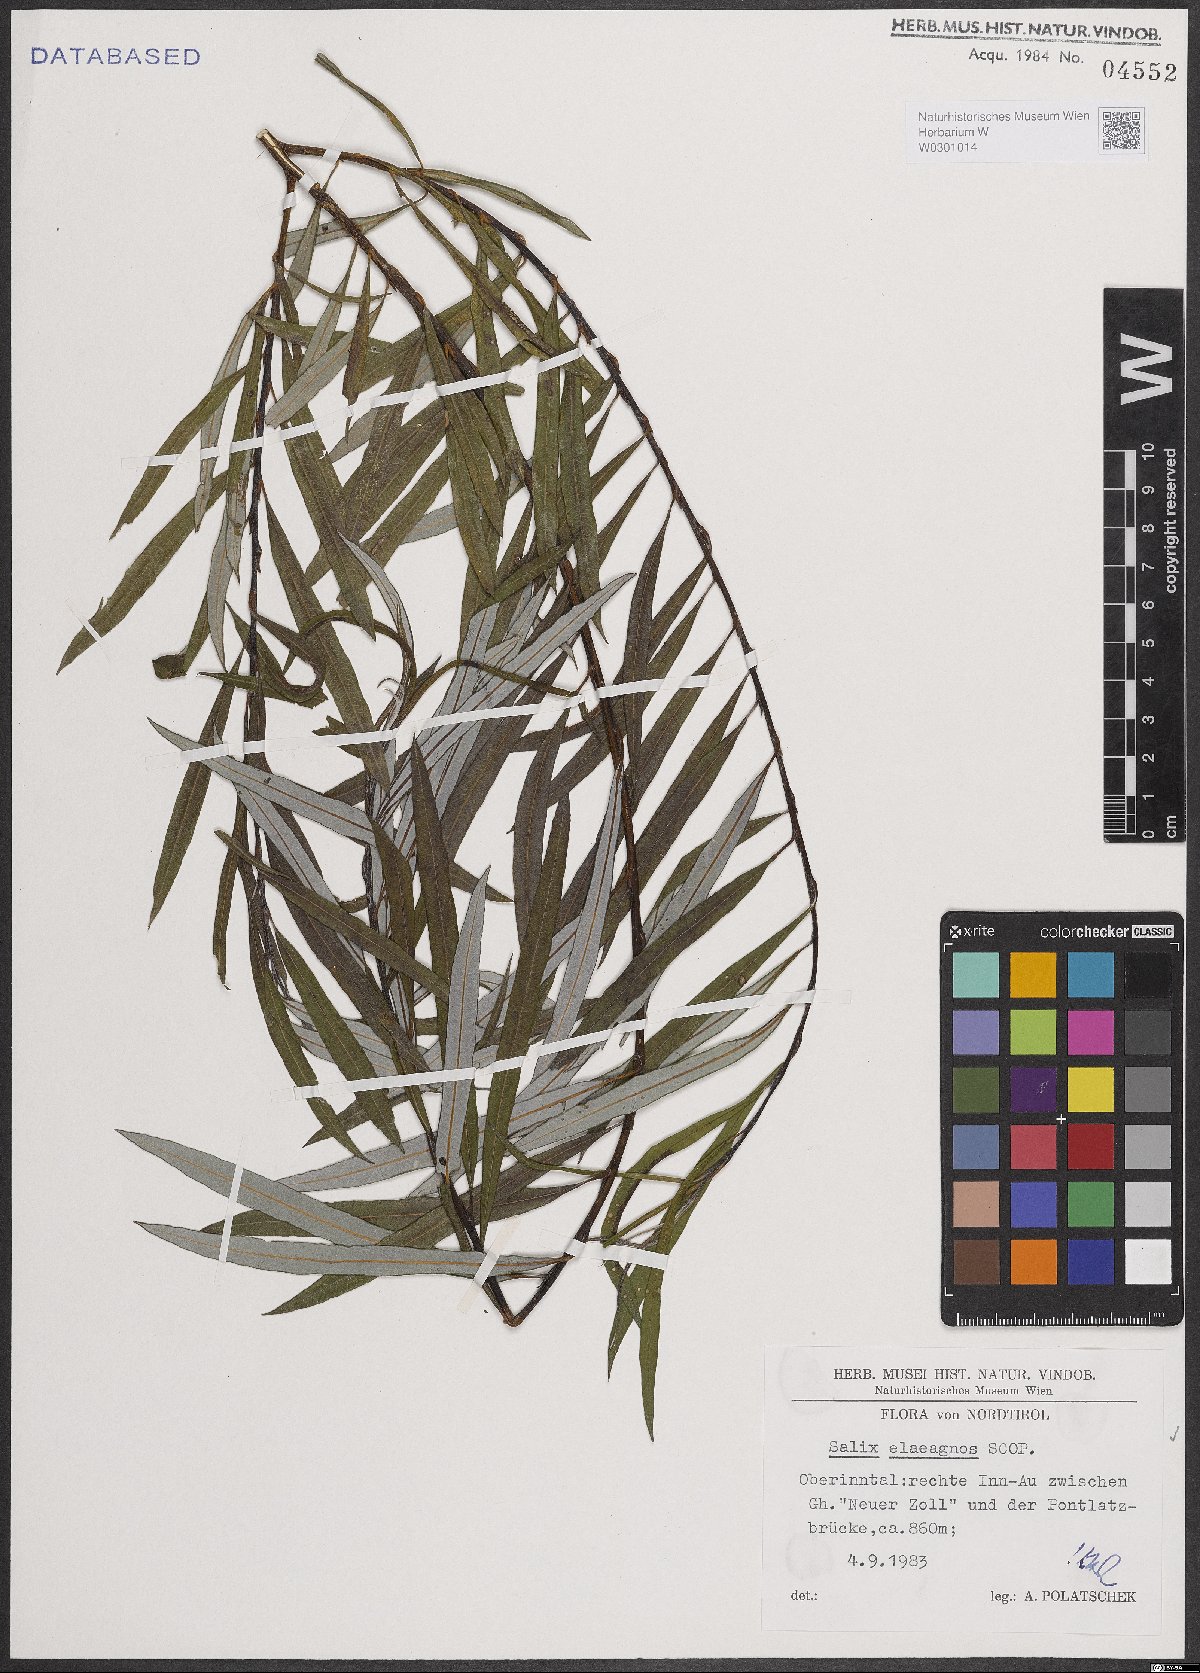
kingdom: Plantae
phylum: Tracheophyta
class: Magnoliopsida
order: Malpighiales
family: Salicaceae
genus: Salix
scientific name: Salix eleagnos
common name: Elaeagnus willow
